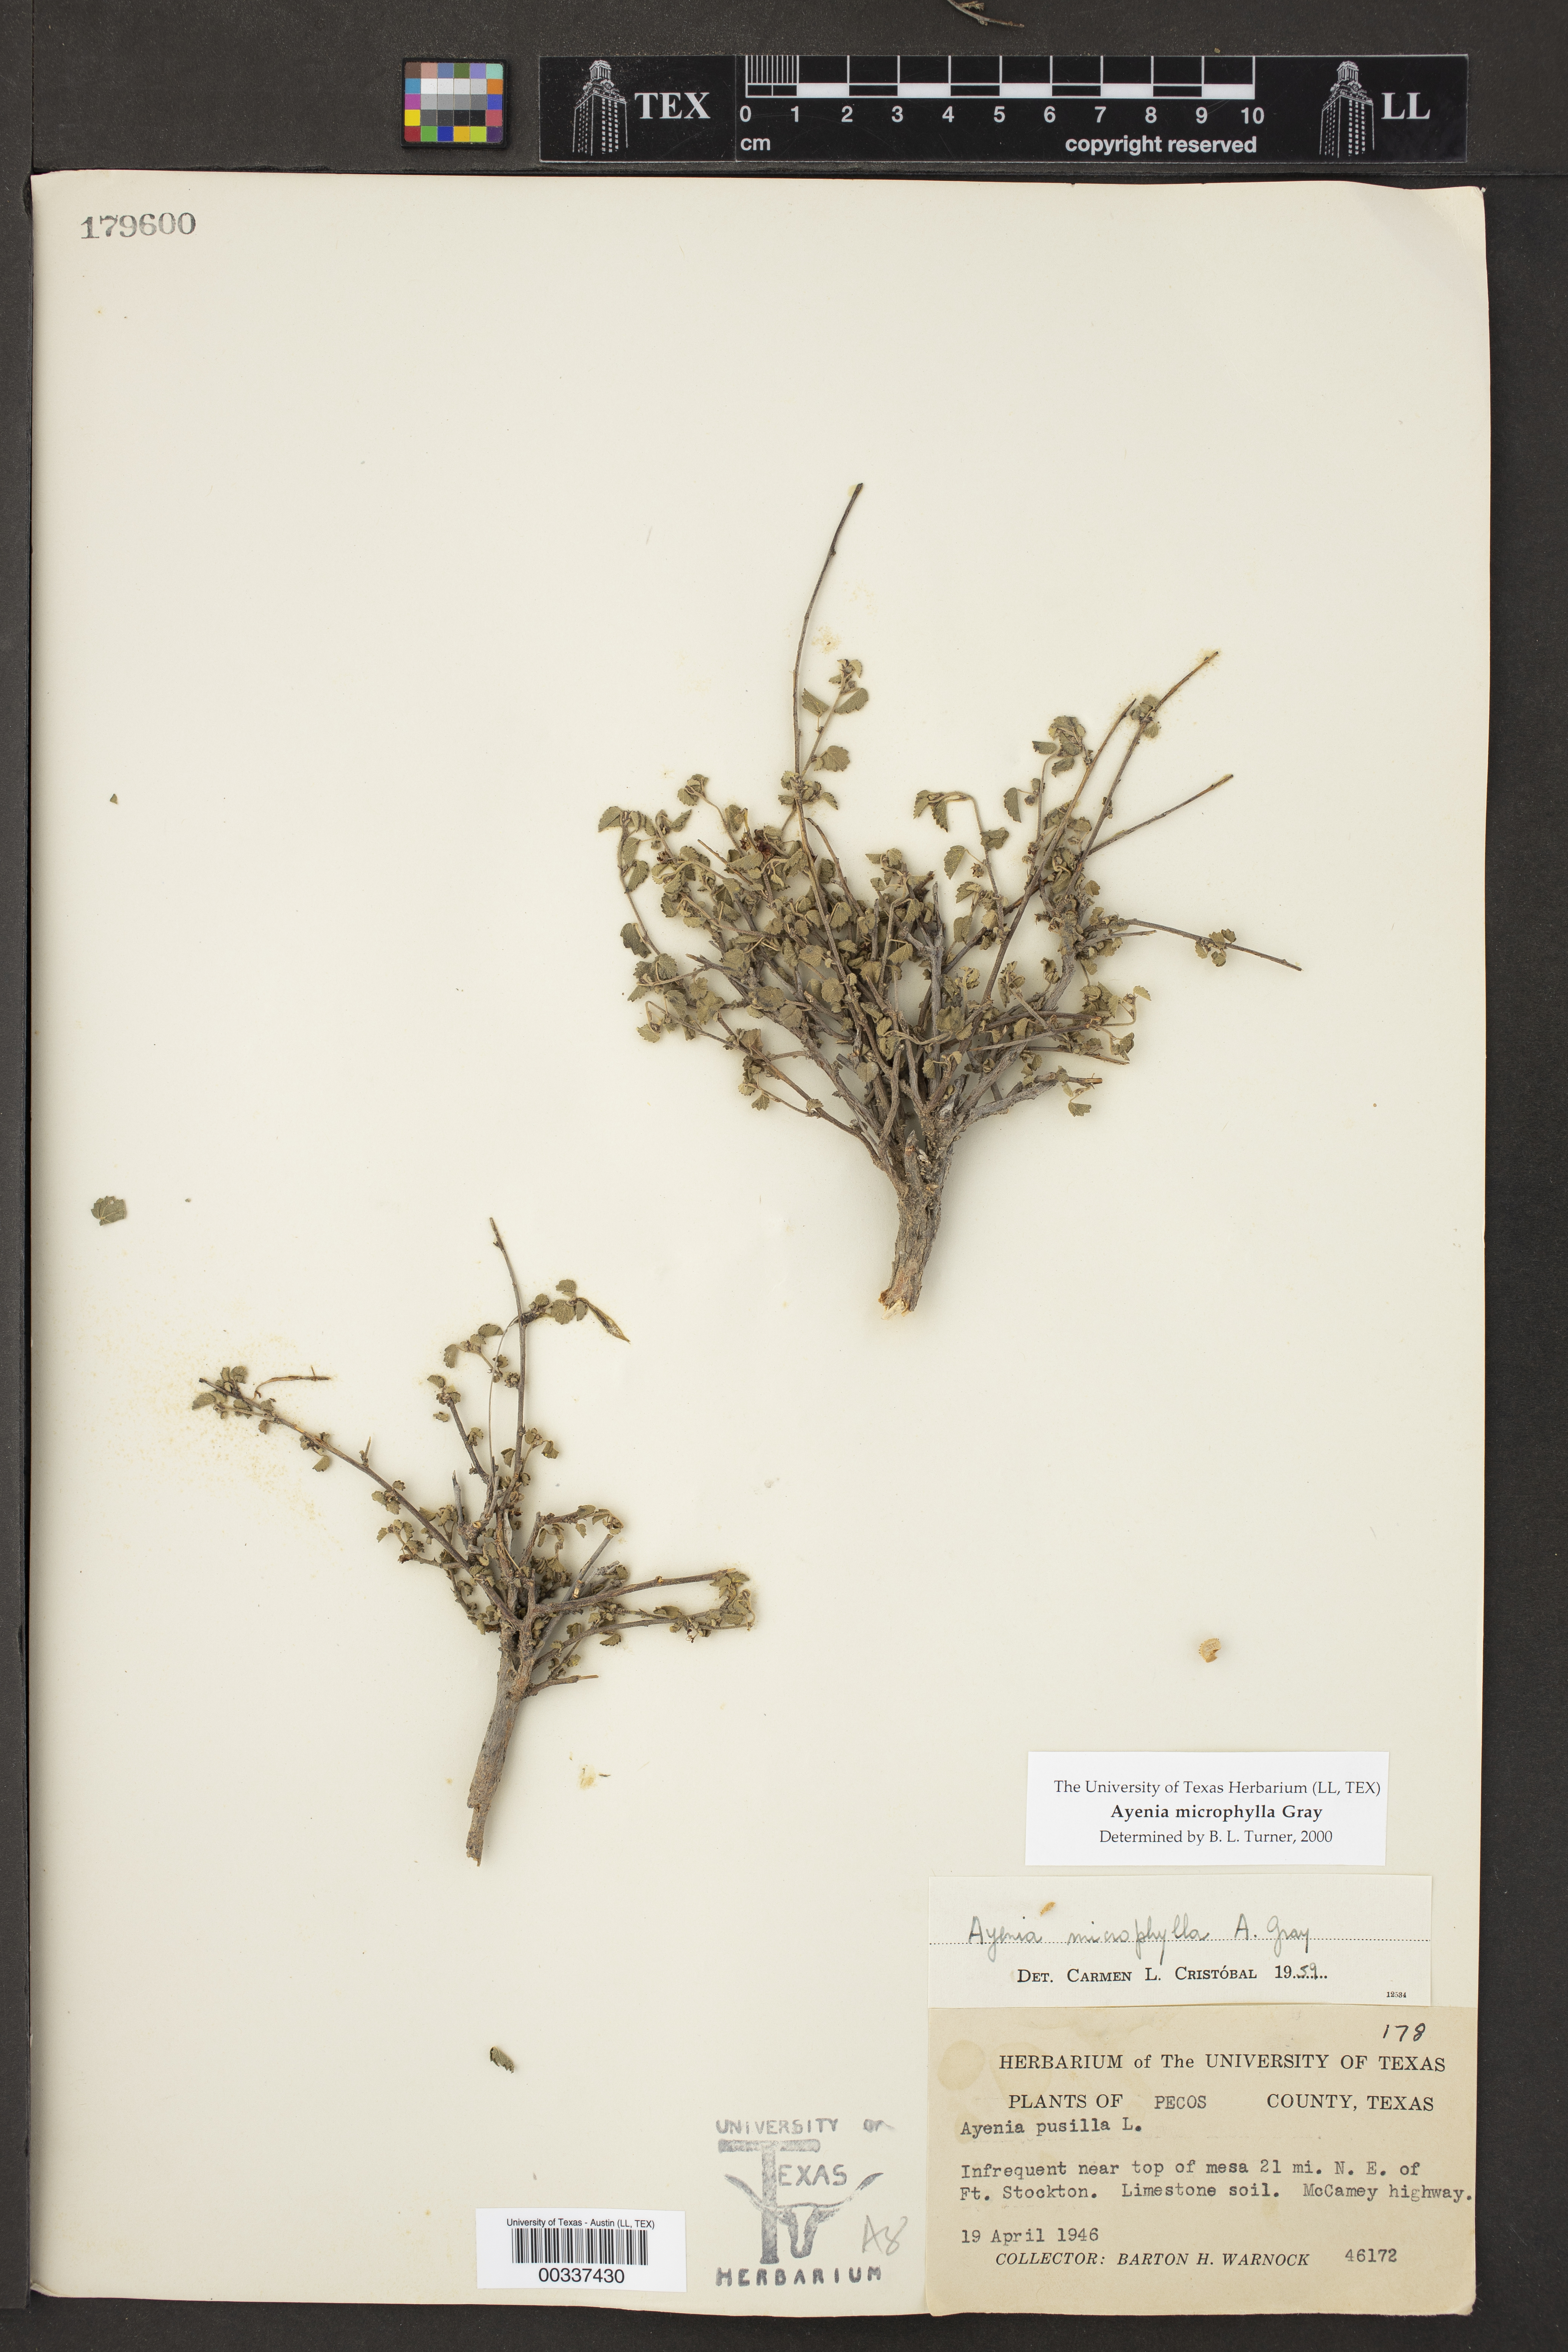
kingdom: Plantae
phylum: Tracheophyta
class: Magnoliopsida
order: Malvales
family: Malvaceae
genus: Ayenia
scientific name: Ayenia microphylla
